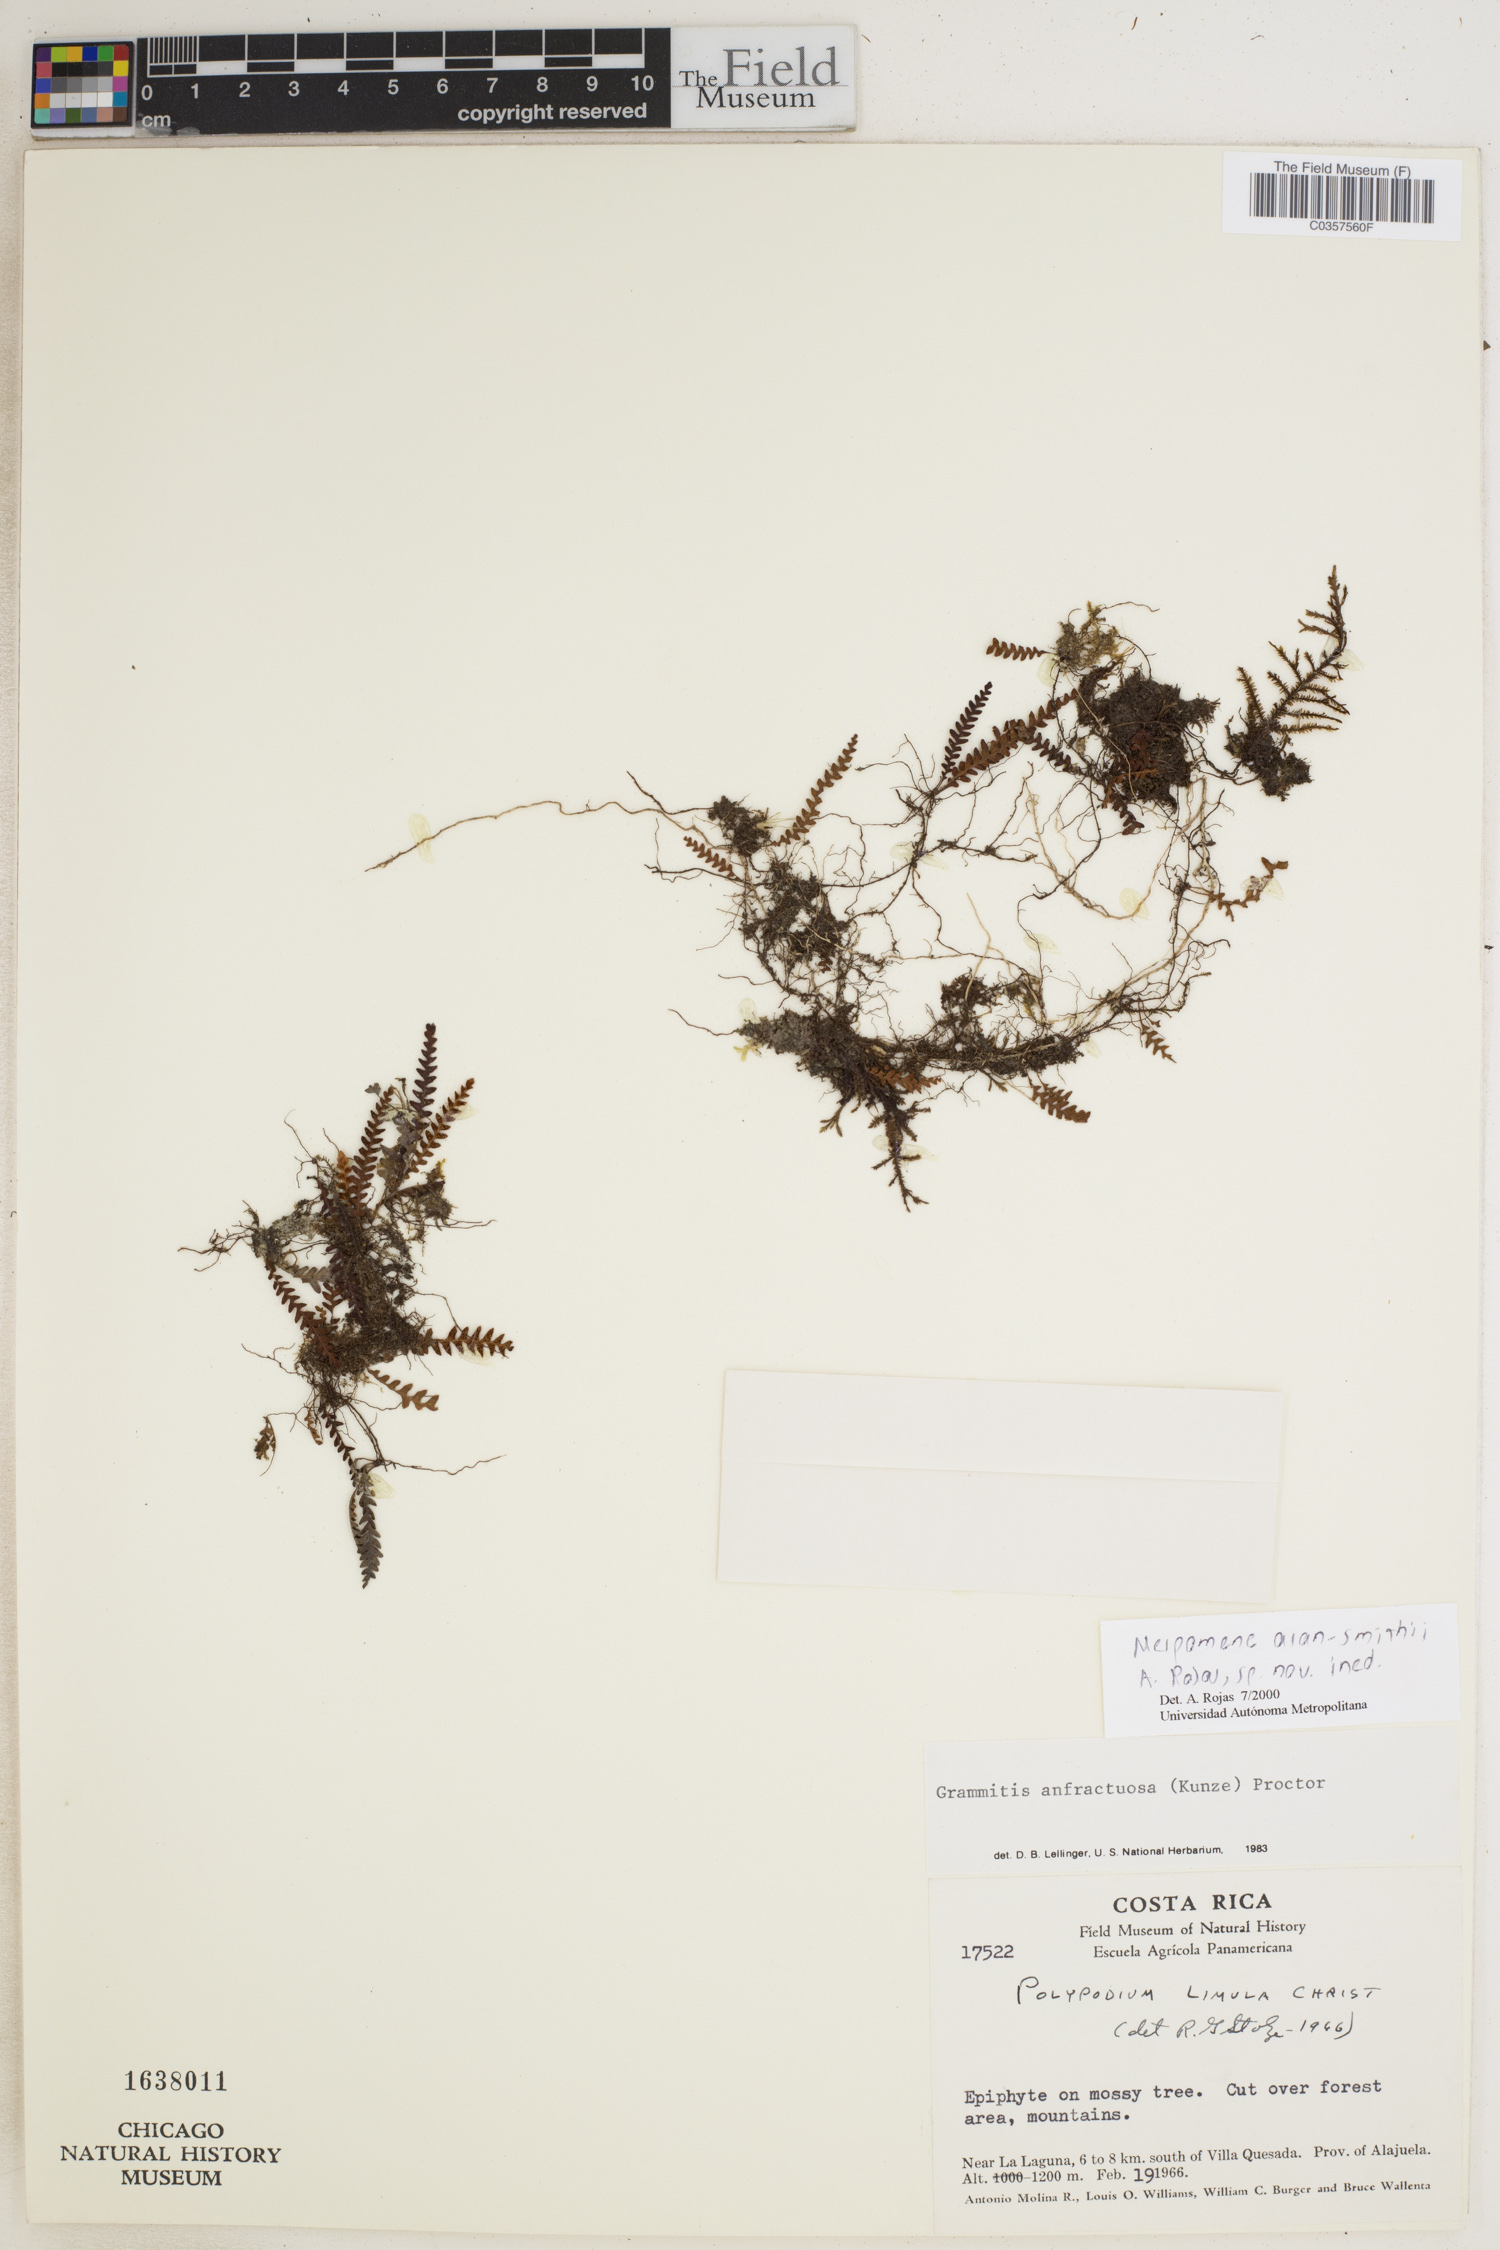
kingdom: Plantae
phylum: Tracheophyta
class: Polypodiopsida
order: Polypodiales
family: Polypodiaceae
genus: Ascogrammitis
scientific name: Ascogrammitis alan-smithii
